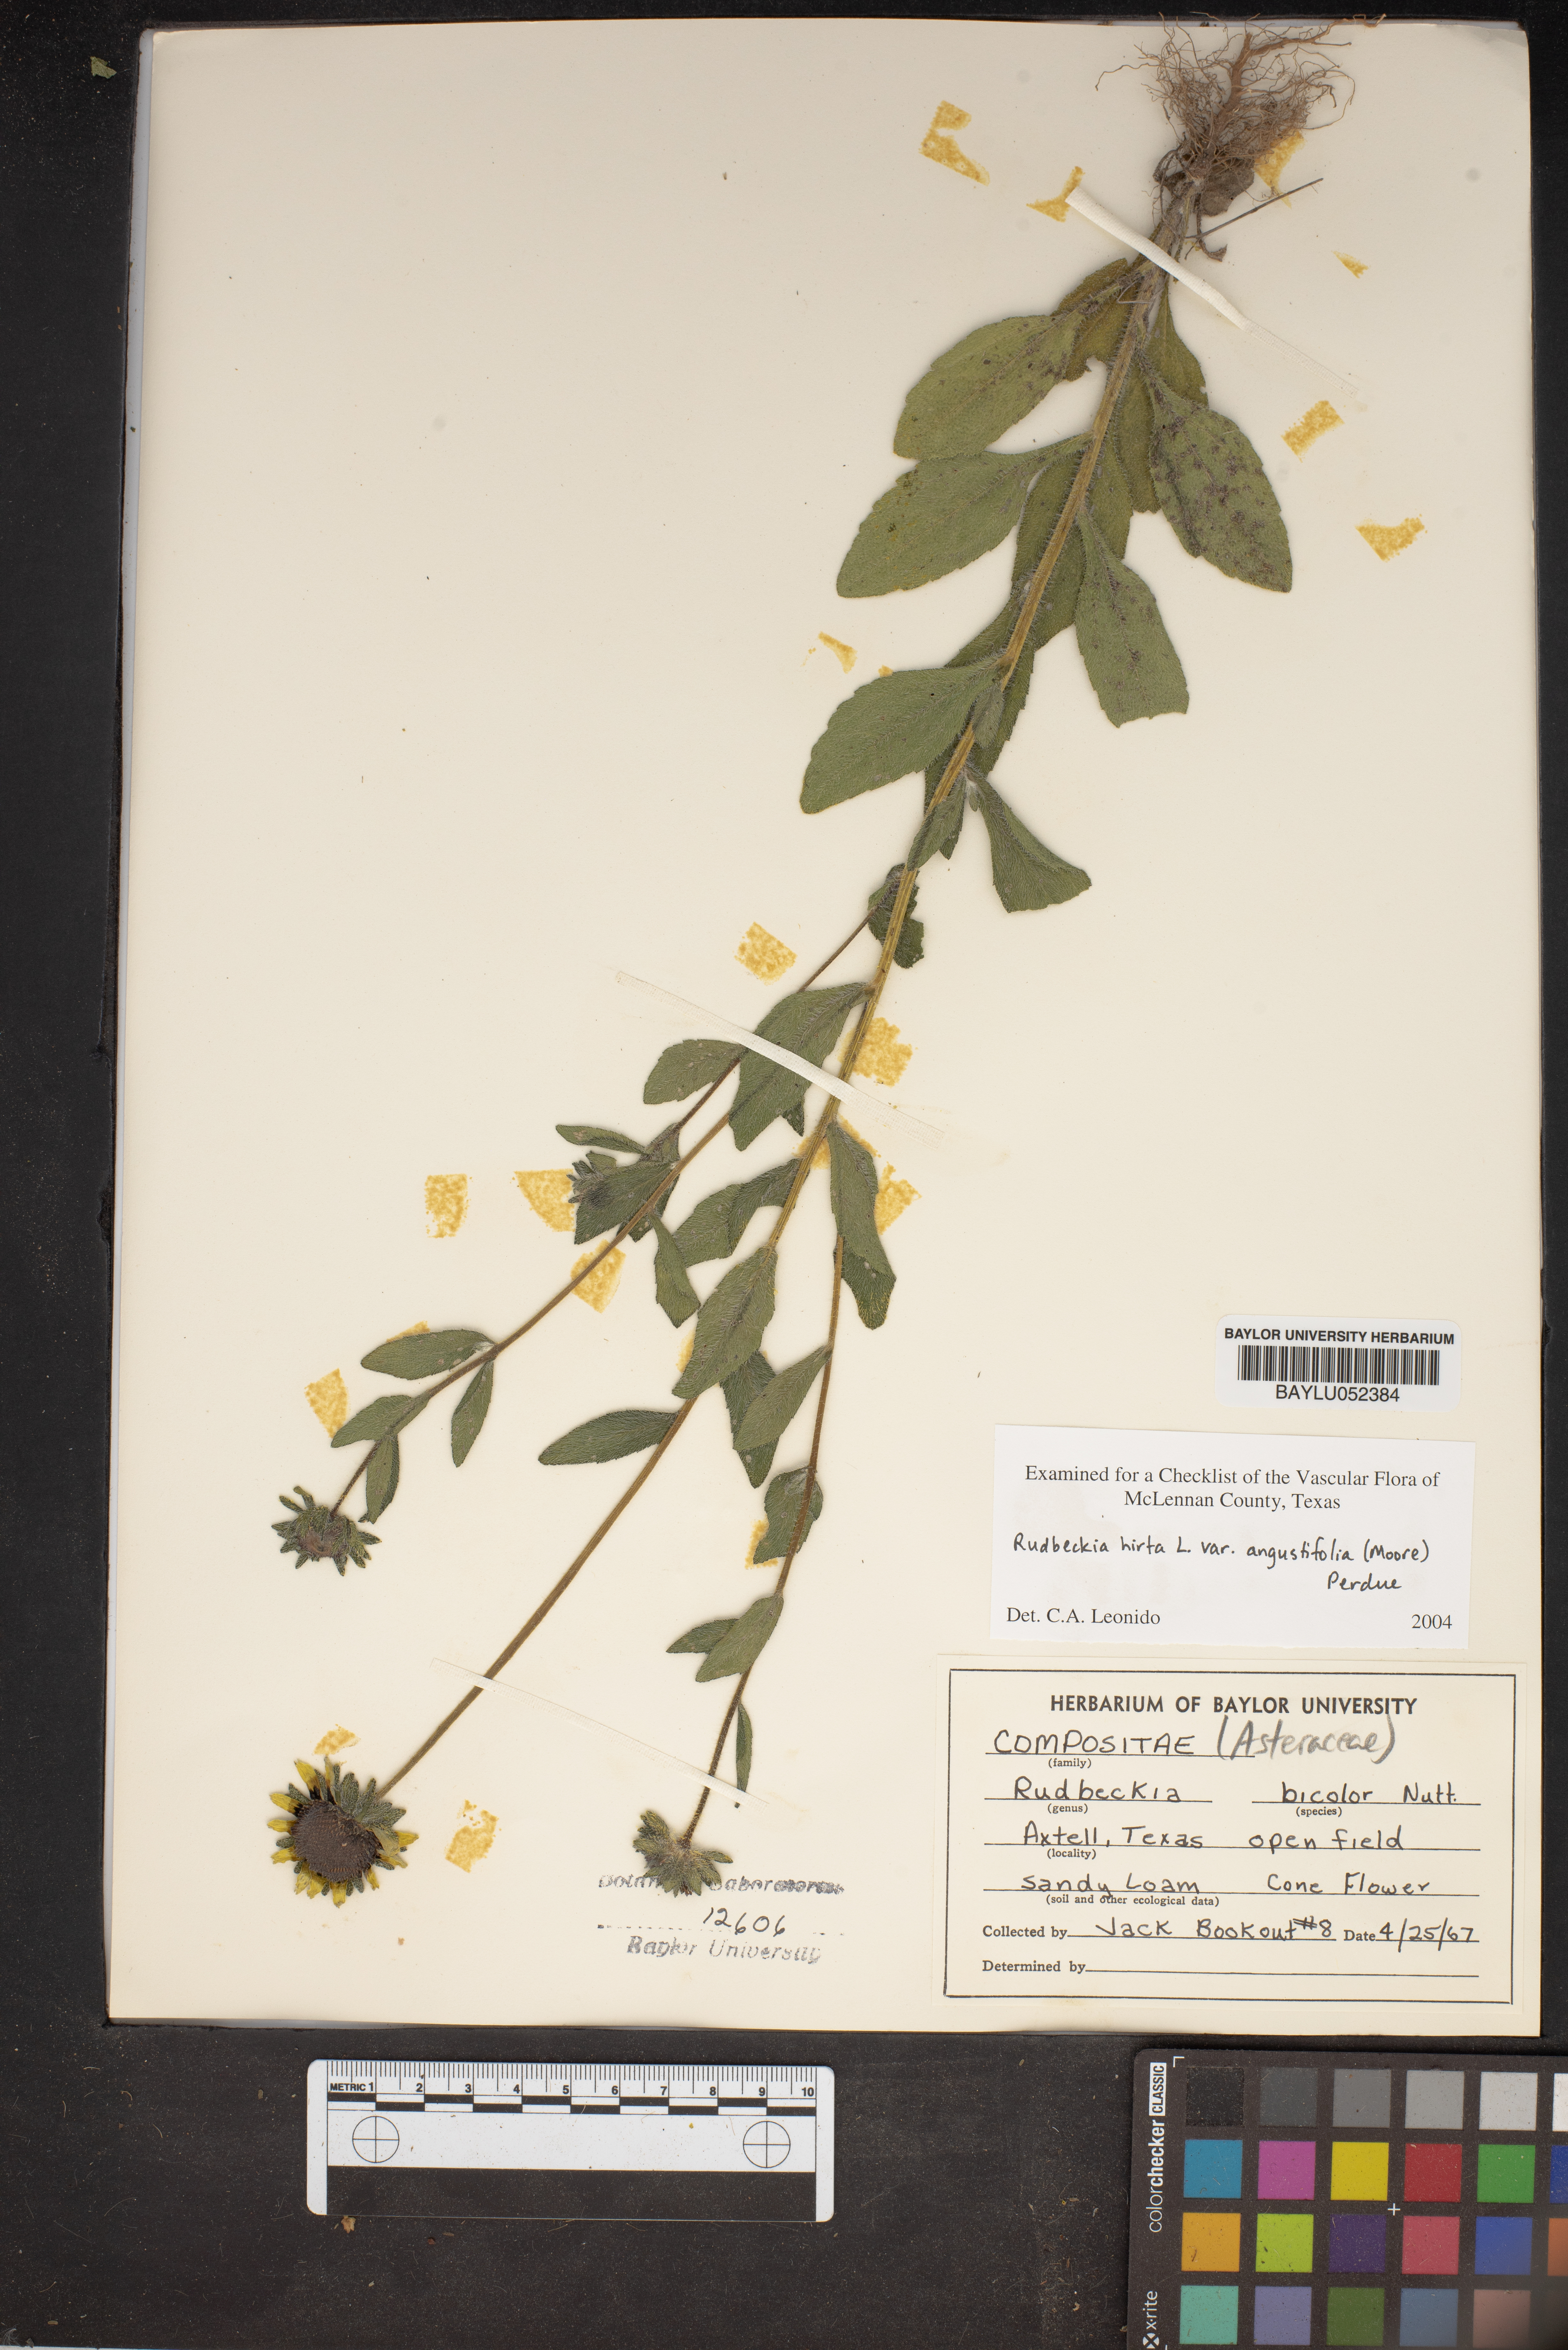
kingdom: Plantae
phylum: Tracheophyta
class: Magnoliopsida
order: Asterales
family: Asteraceae
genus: Rudbeckia
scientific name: Rudbeckia hirta
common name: Black-eyed-susan
